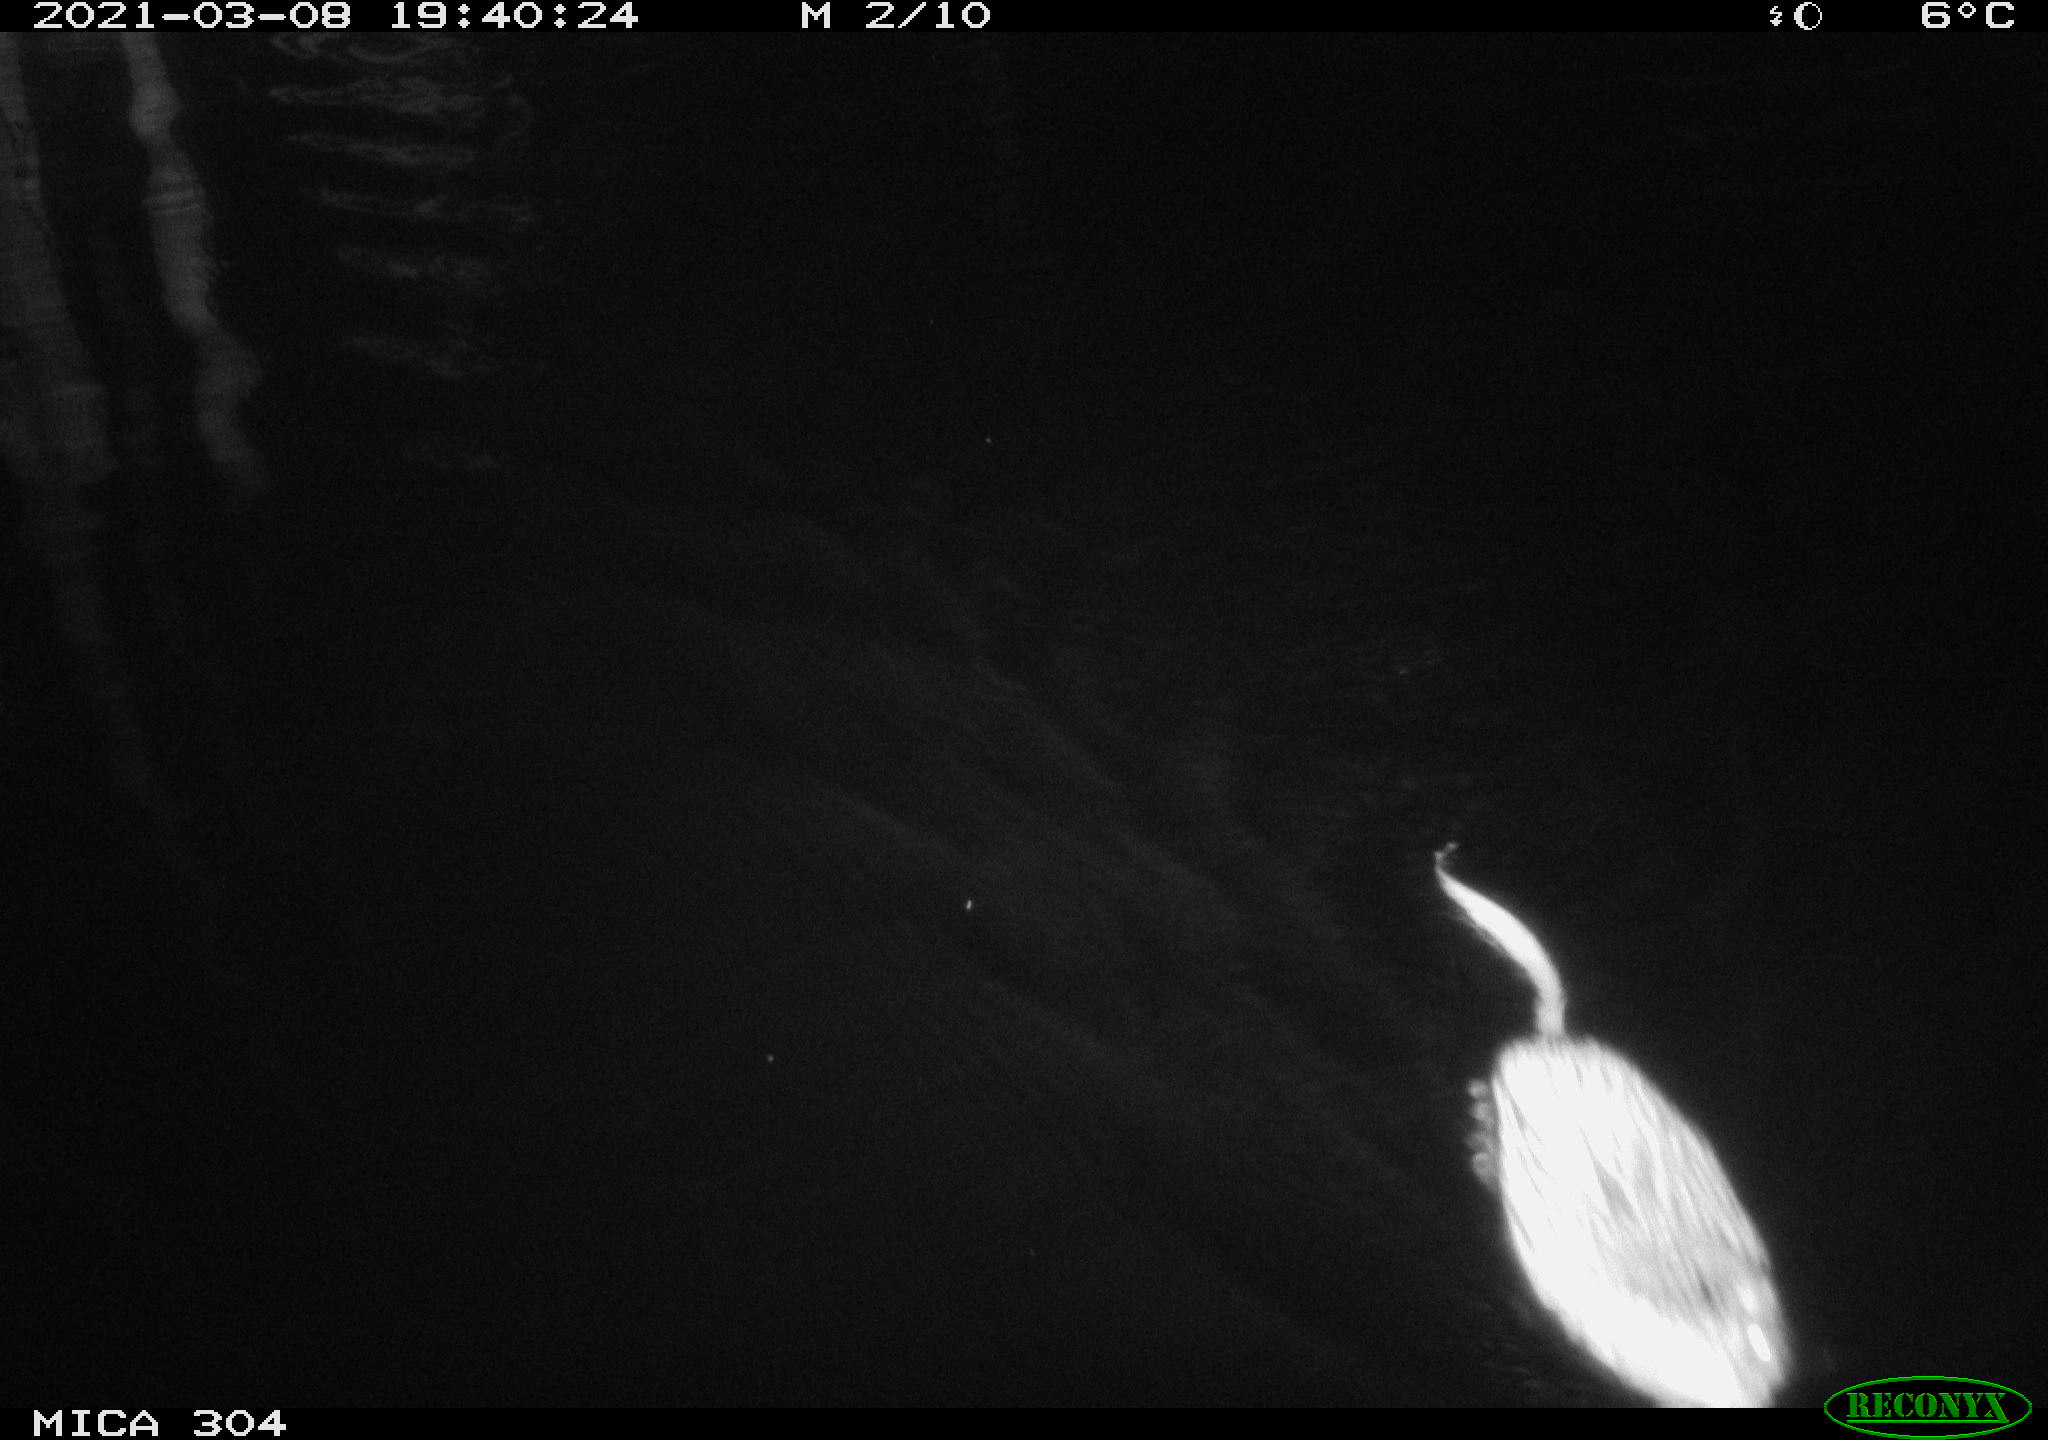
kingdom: Animalia
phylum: Chordata
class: Mammalia
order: Rodentia
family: Cricetidae
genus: Ondatra
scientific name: Ondatra zibethicus
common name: Muskrat
